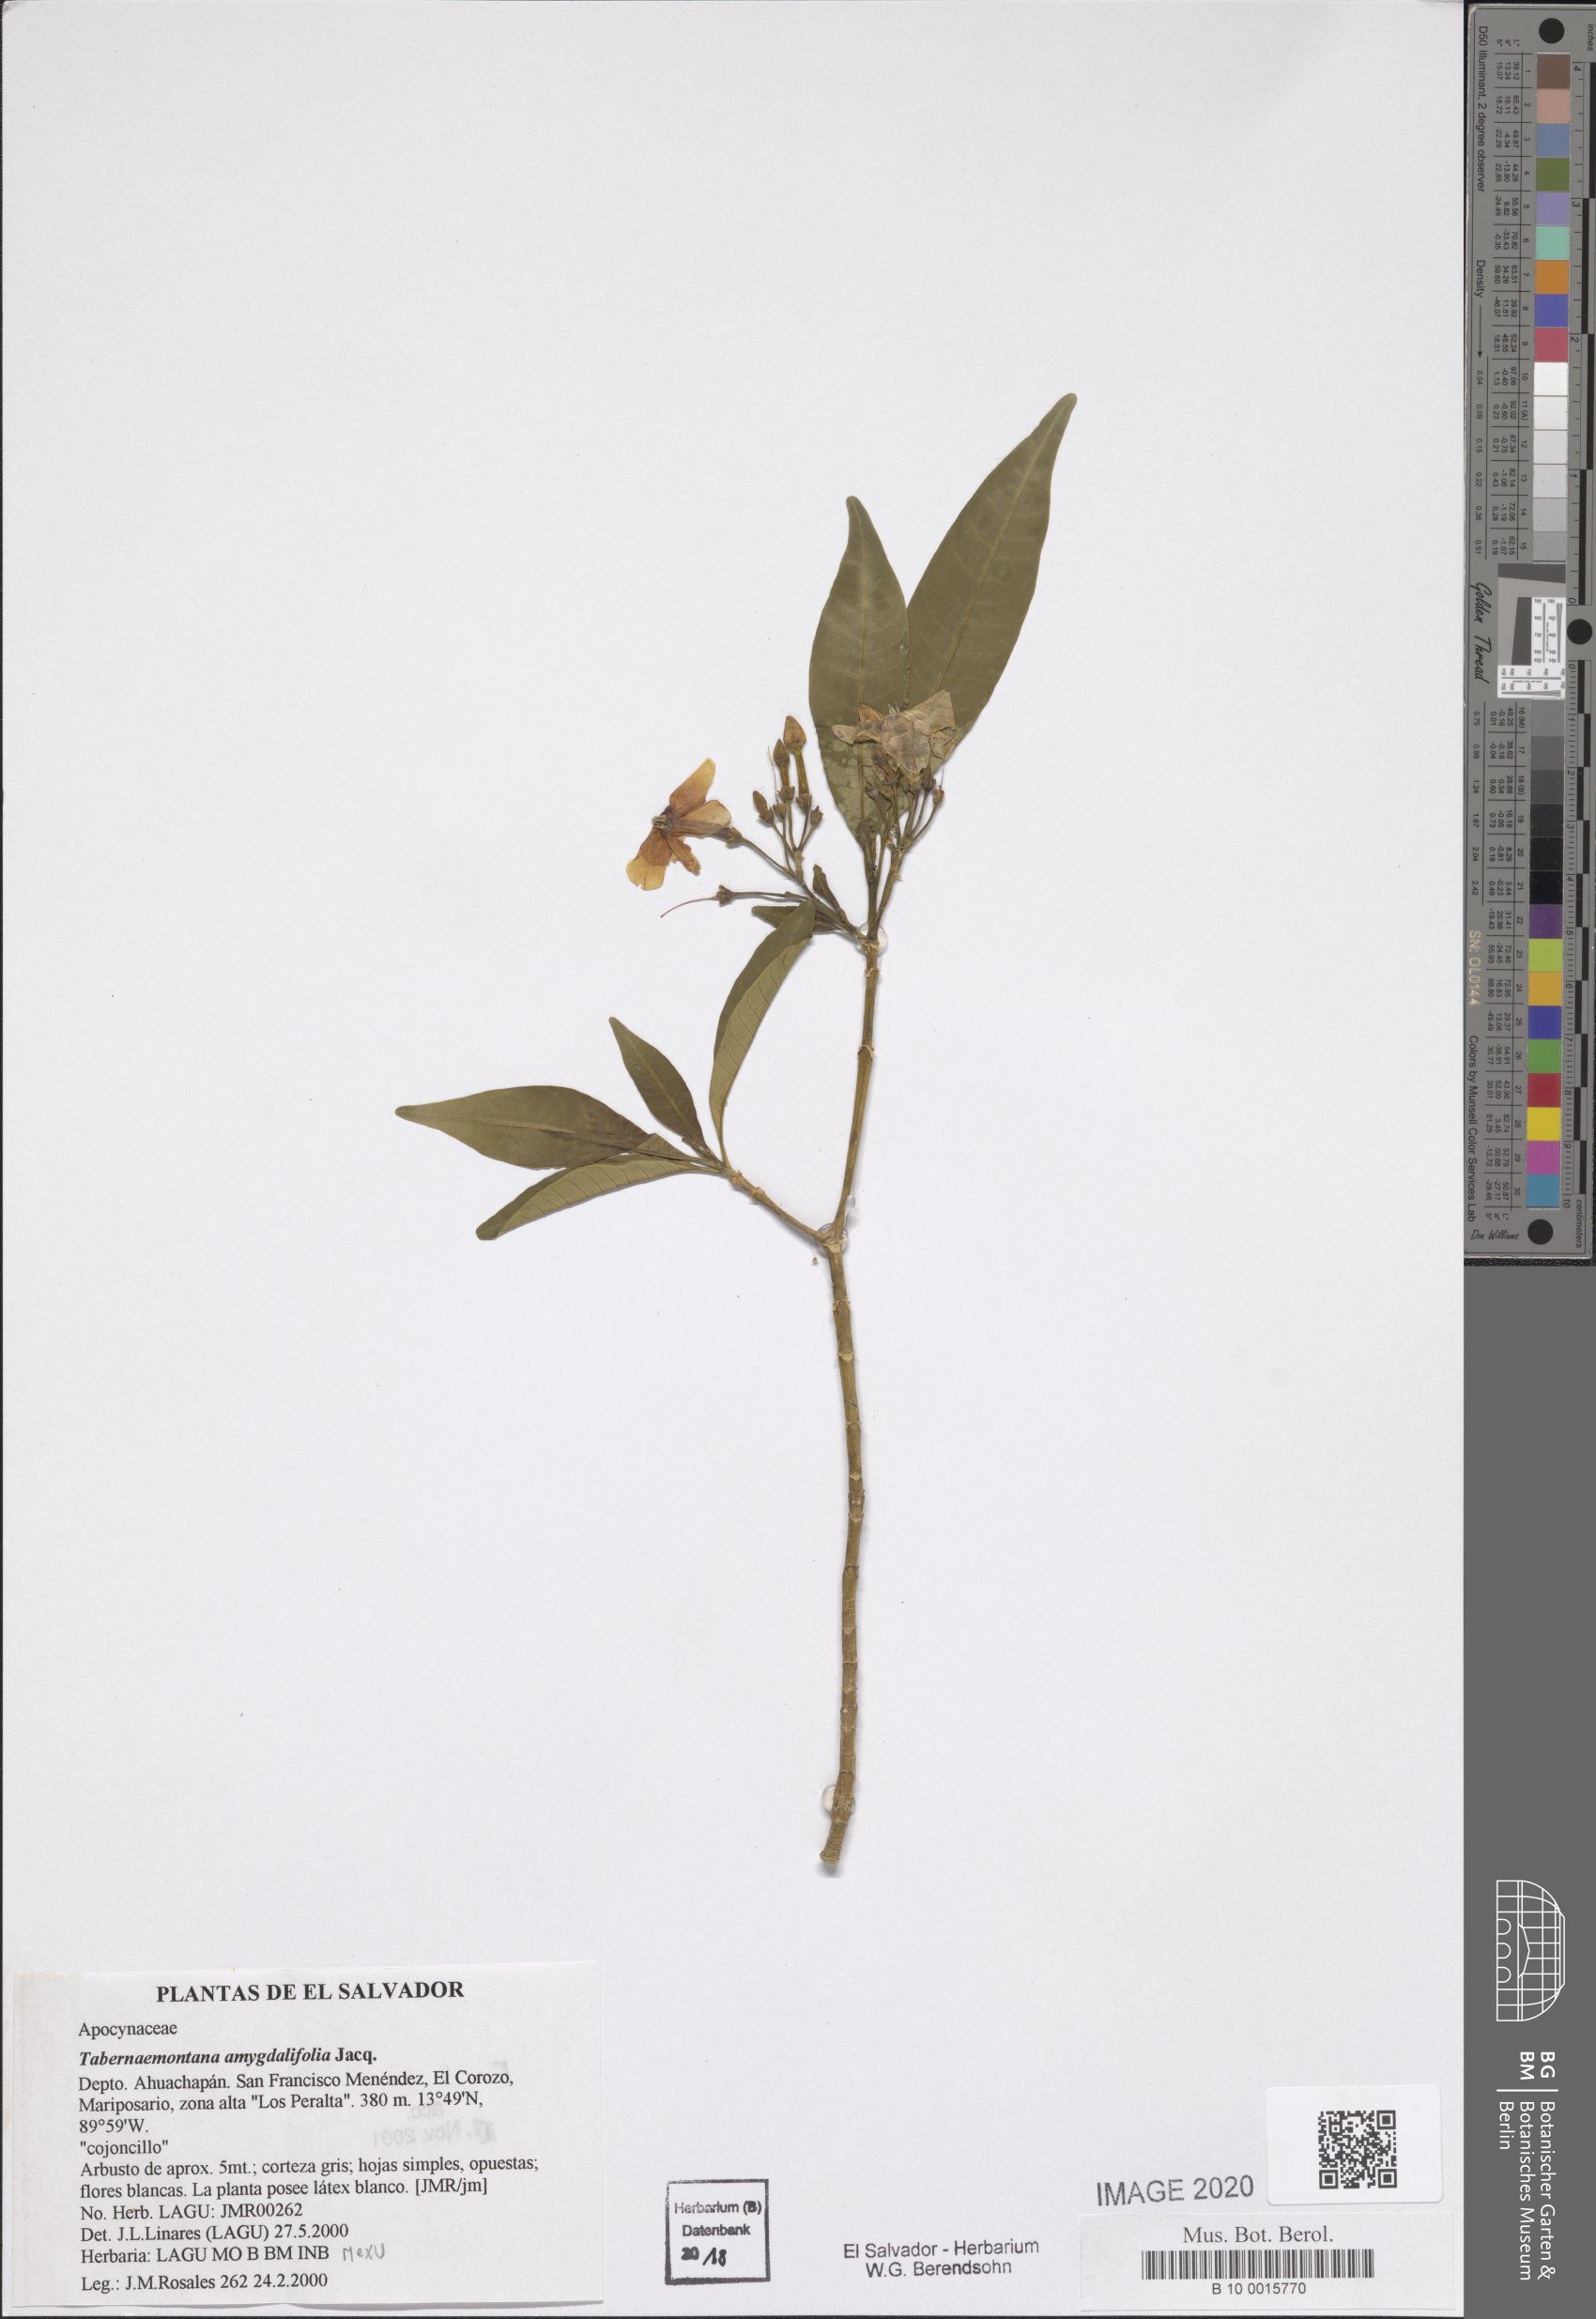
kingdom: Plantae
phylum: Tracheophyta
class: Magnoliopsida
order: Gentianales
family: Apocynaceae
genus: Tabernaemontana
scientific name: Tabernaemontana amygdalifolia
